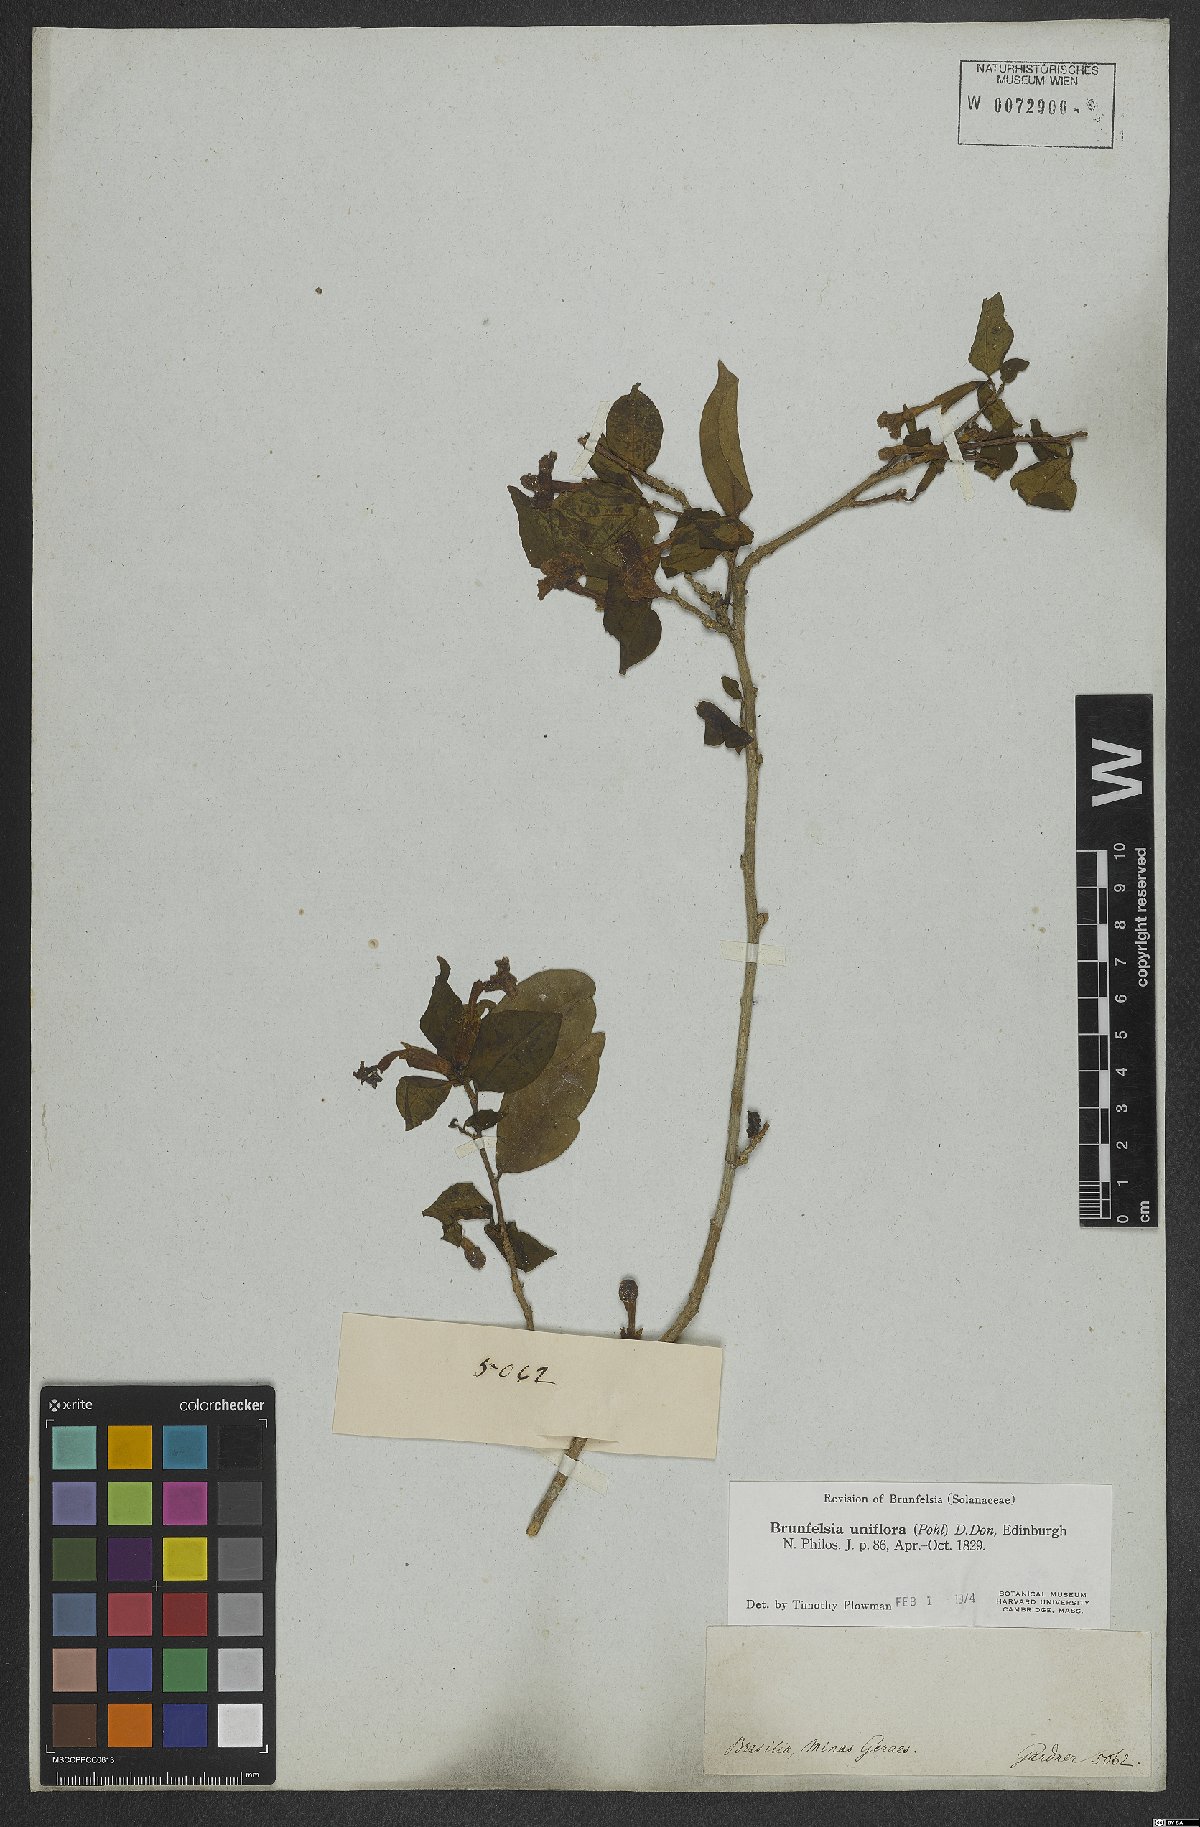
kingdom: Plantae
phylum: Tracheophyta
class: Magnoliopsida
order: Solanales
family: Solanaceae
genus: Brunfelsia
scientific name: Brunfelsia uniflora
